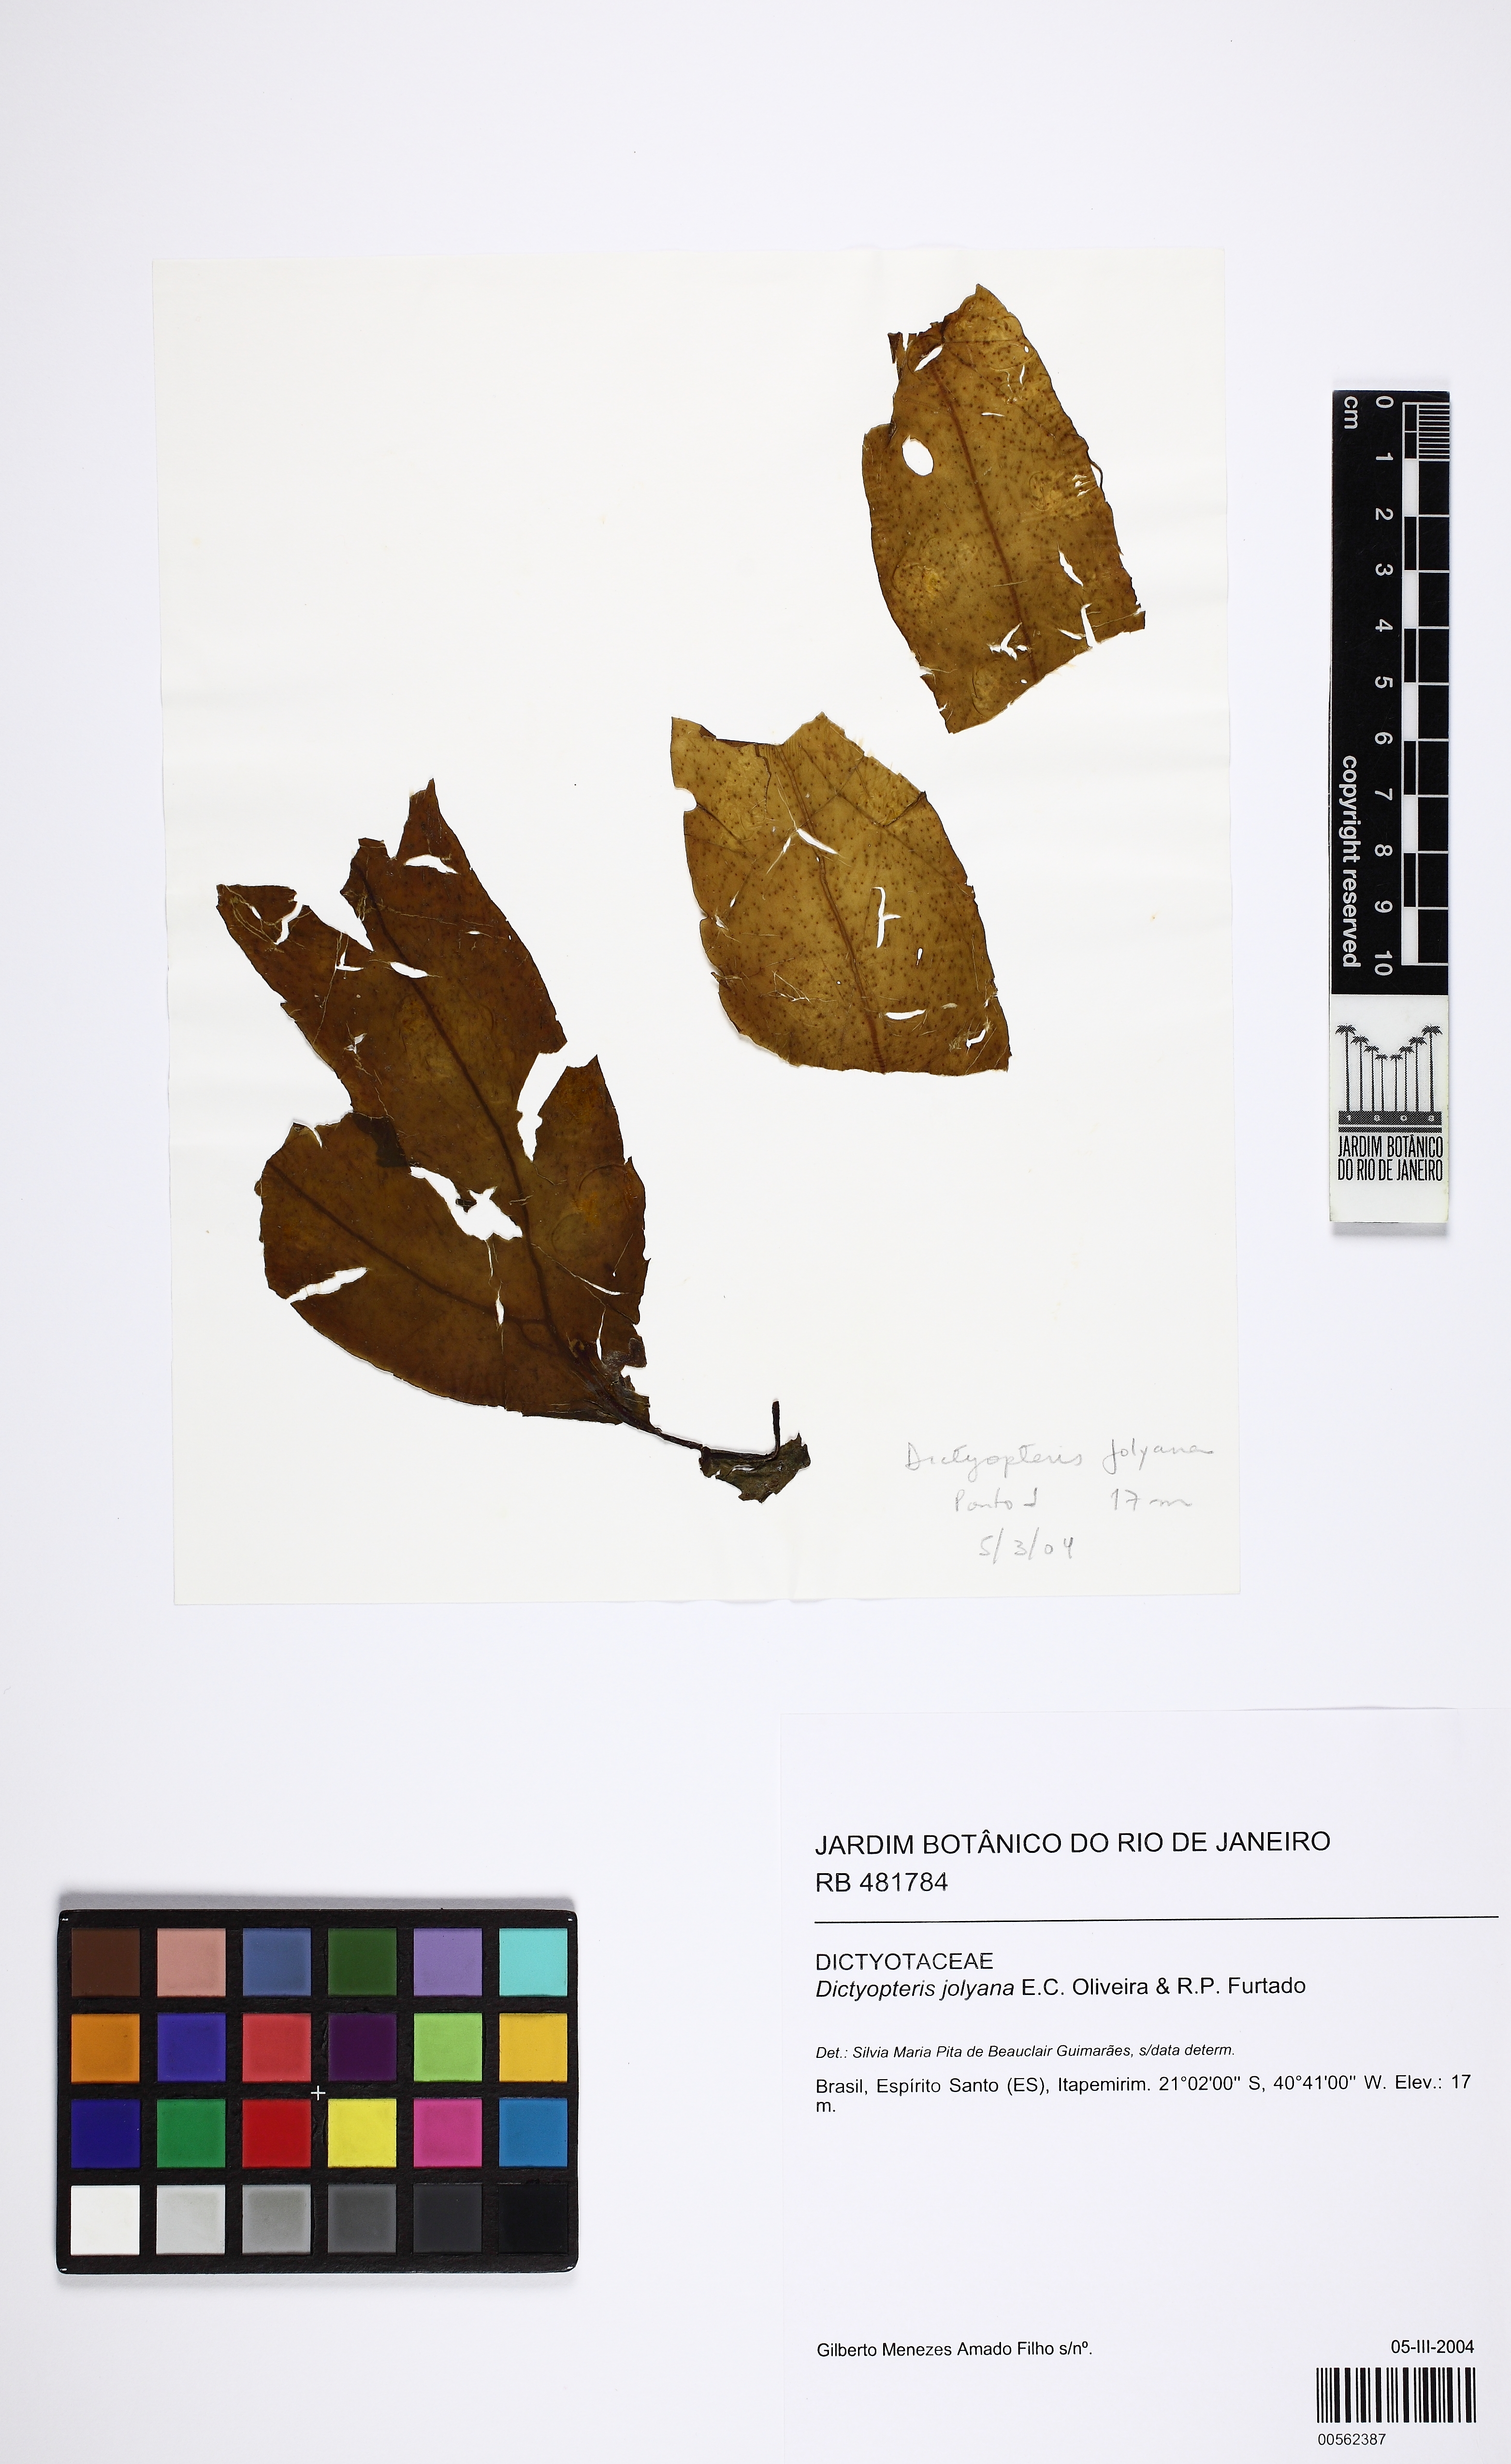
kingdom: Chromista
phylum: Ochrophyta
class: Phaeophyceae
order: Dictyotales
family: Dictyotaceae
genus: Dictyopteris
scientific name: Dictyopteris jolyana
